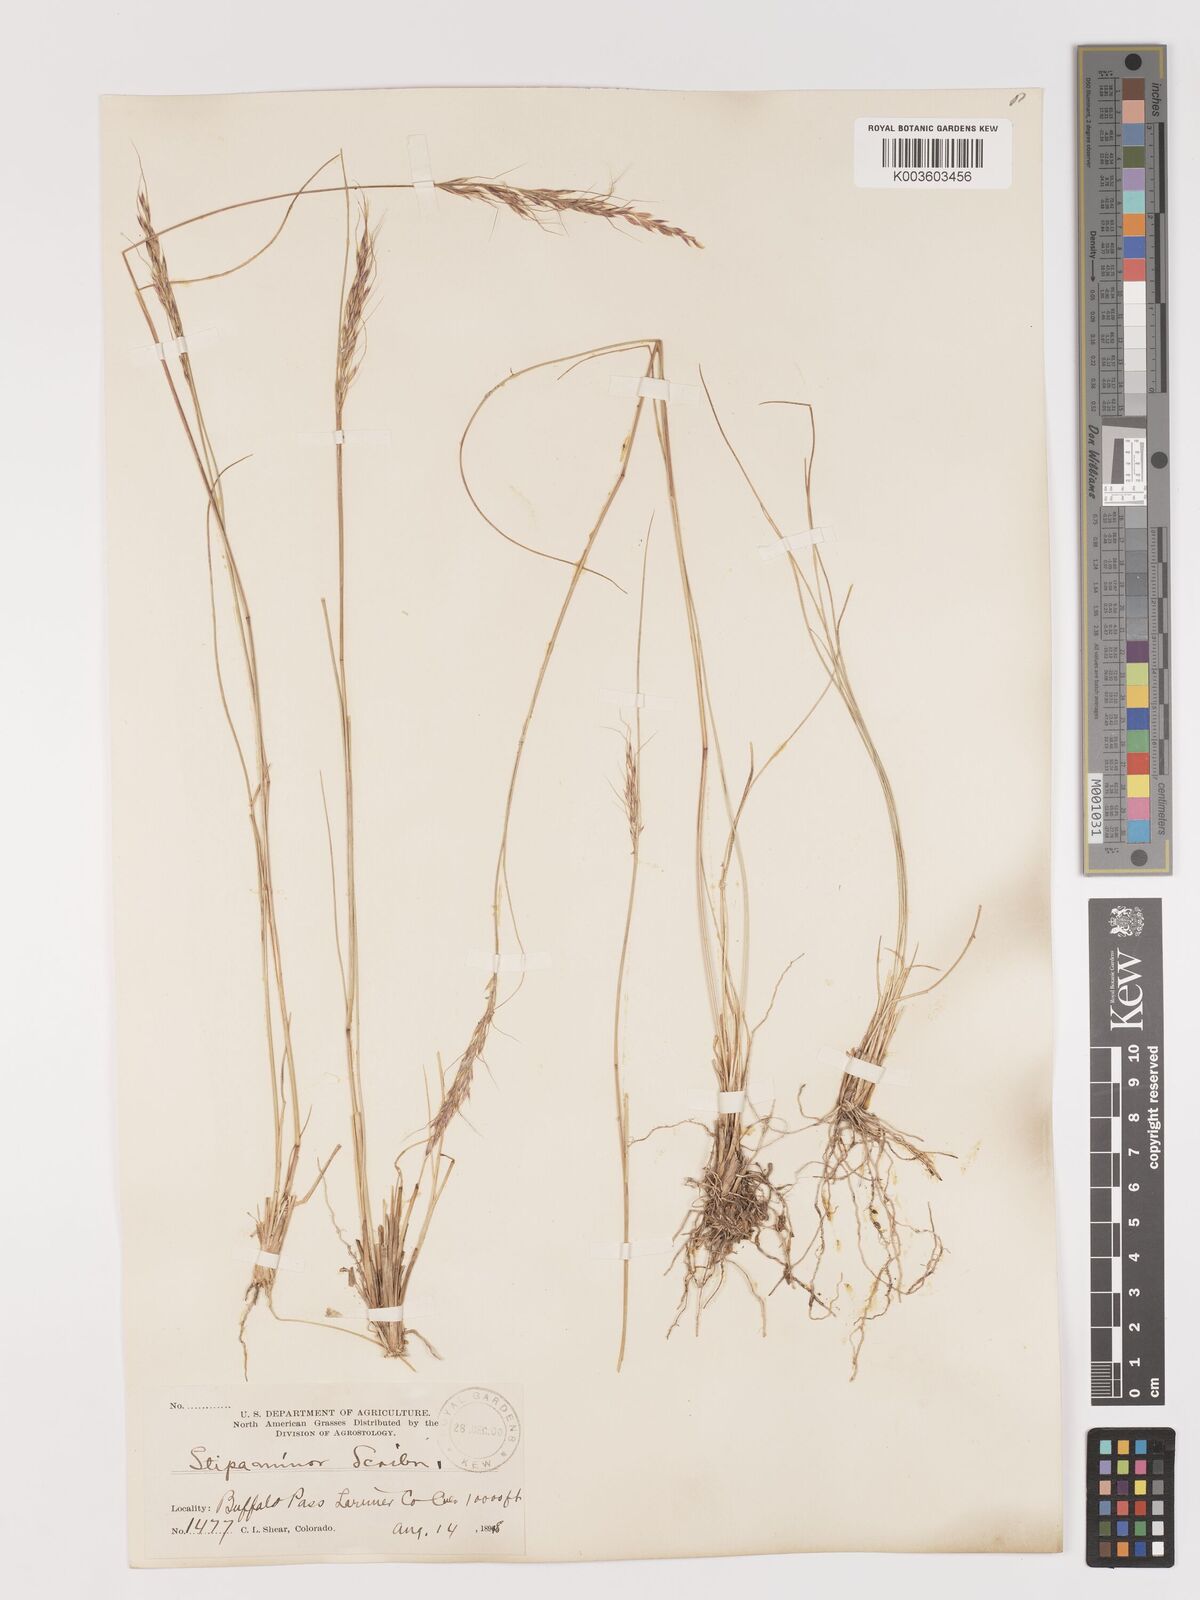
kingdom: Plantae
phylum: Tracheophyta
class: Liliopsida
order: Poales
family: Poaceae
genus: Eriocoma
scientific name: Eriocoma nelsonii
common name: Nelson's needlegrass
